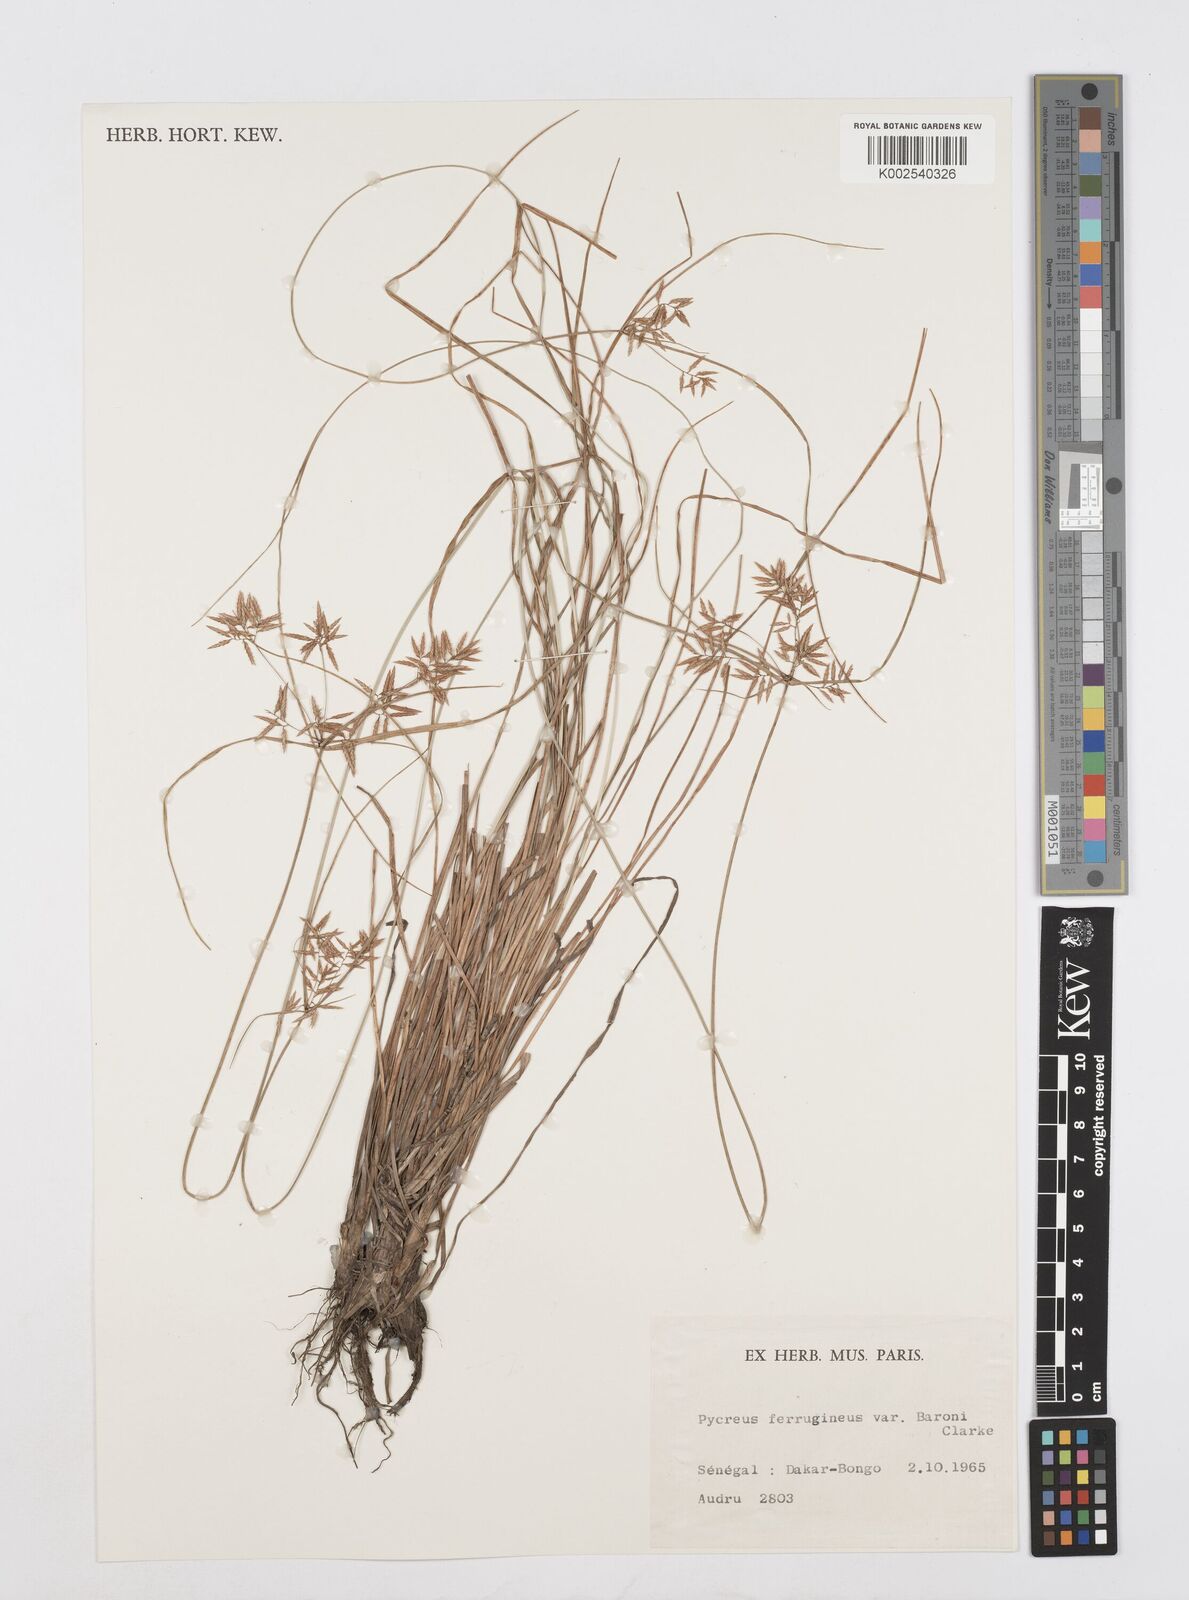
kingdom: Plantae
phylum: Tracheophyta
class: Liliopsida
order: Poales
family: Cyperaceae
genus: Cyperus
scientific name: Cyperus polystachyos
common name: Bunchy flat sedge
